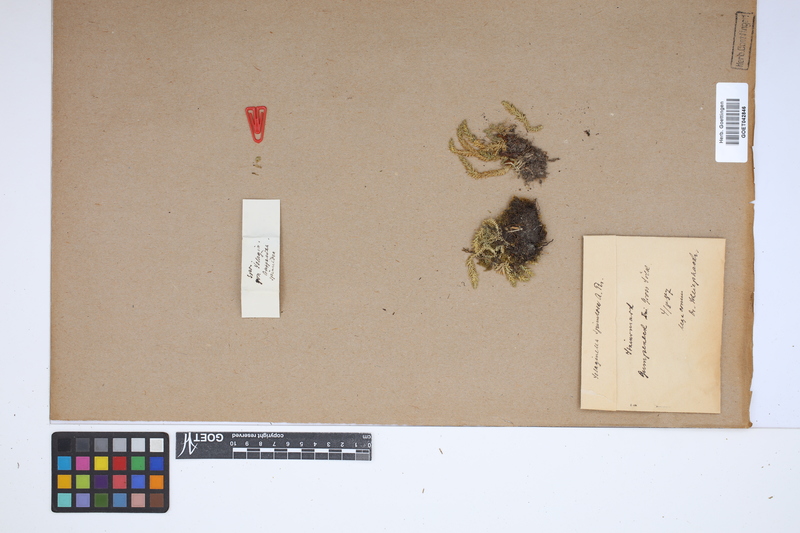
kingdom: Plantae
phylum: Tracheophyta
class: Lycopodiopsida
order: Selaginellales
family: Selaginellaceae
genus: Selaginella
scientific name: Selaginella selaginoides
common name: Prickly mountain-moss
